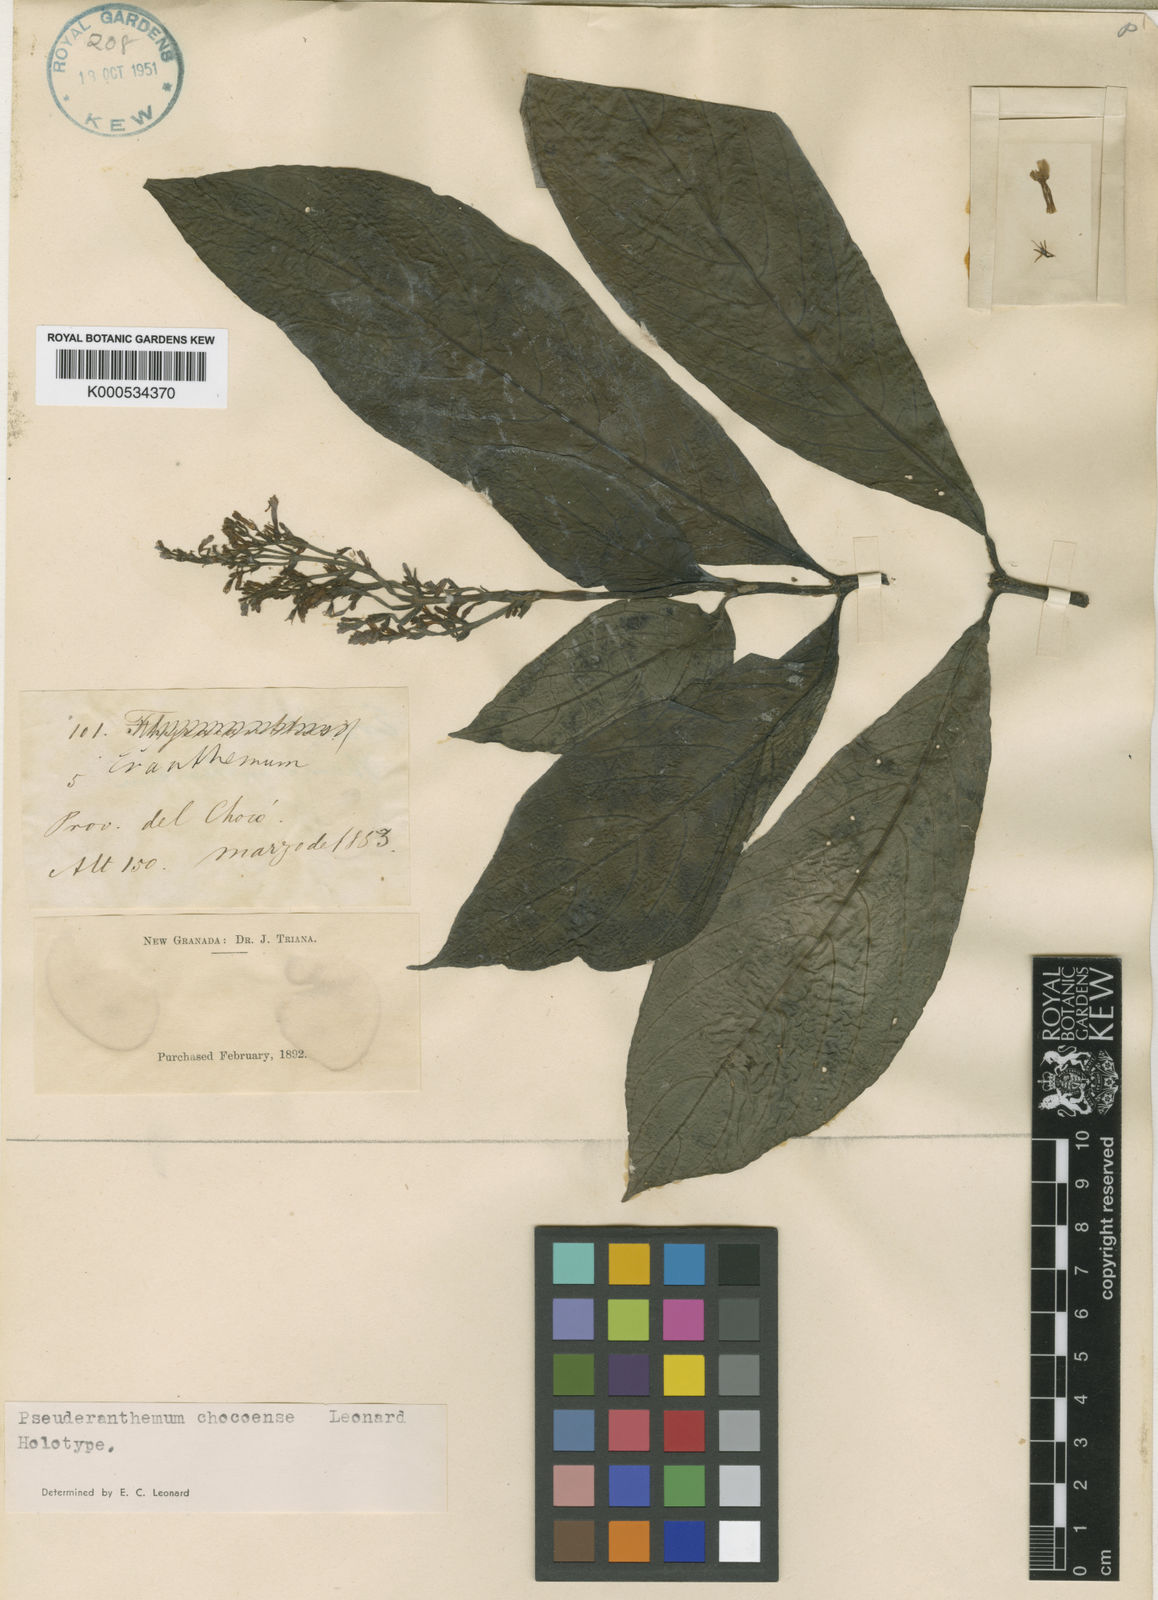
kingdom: Plantae
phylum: Tracheophyta
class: Magnoliopsida
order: Lamiales
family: Acanthaceae
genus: Pseuderanthemum
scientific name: Pseuderanthemum chocoense
